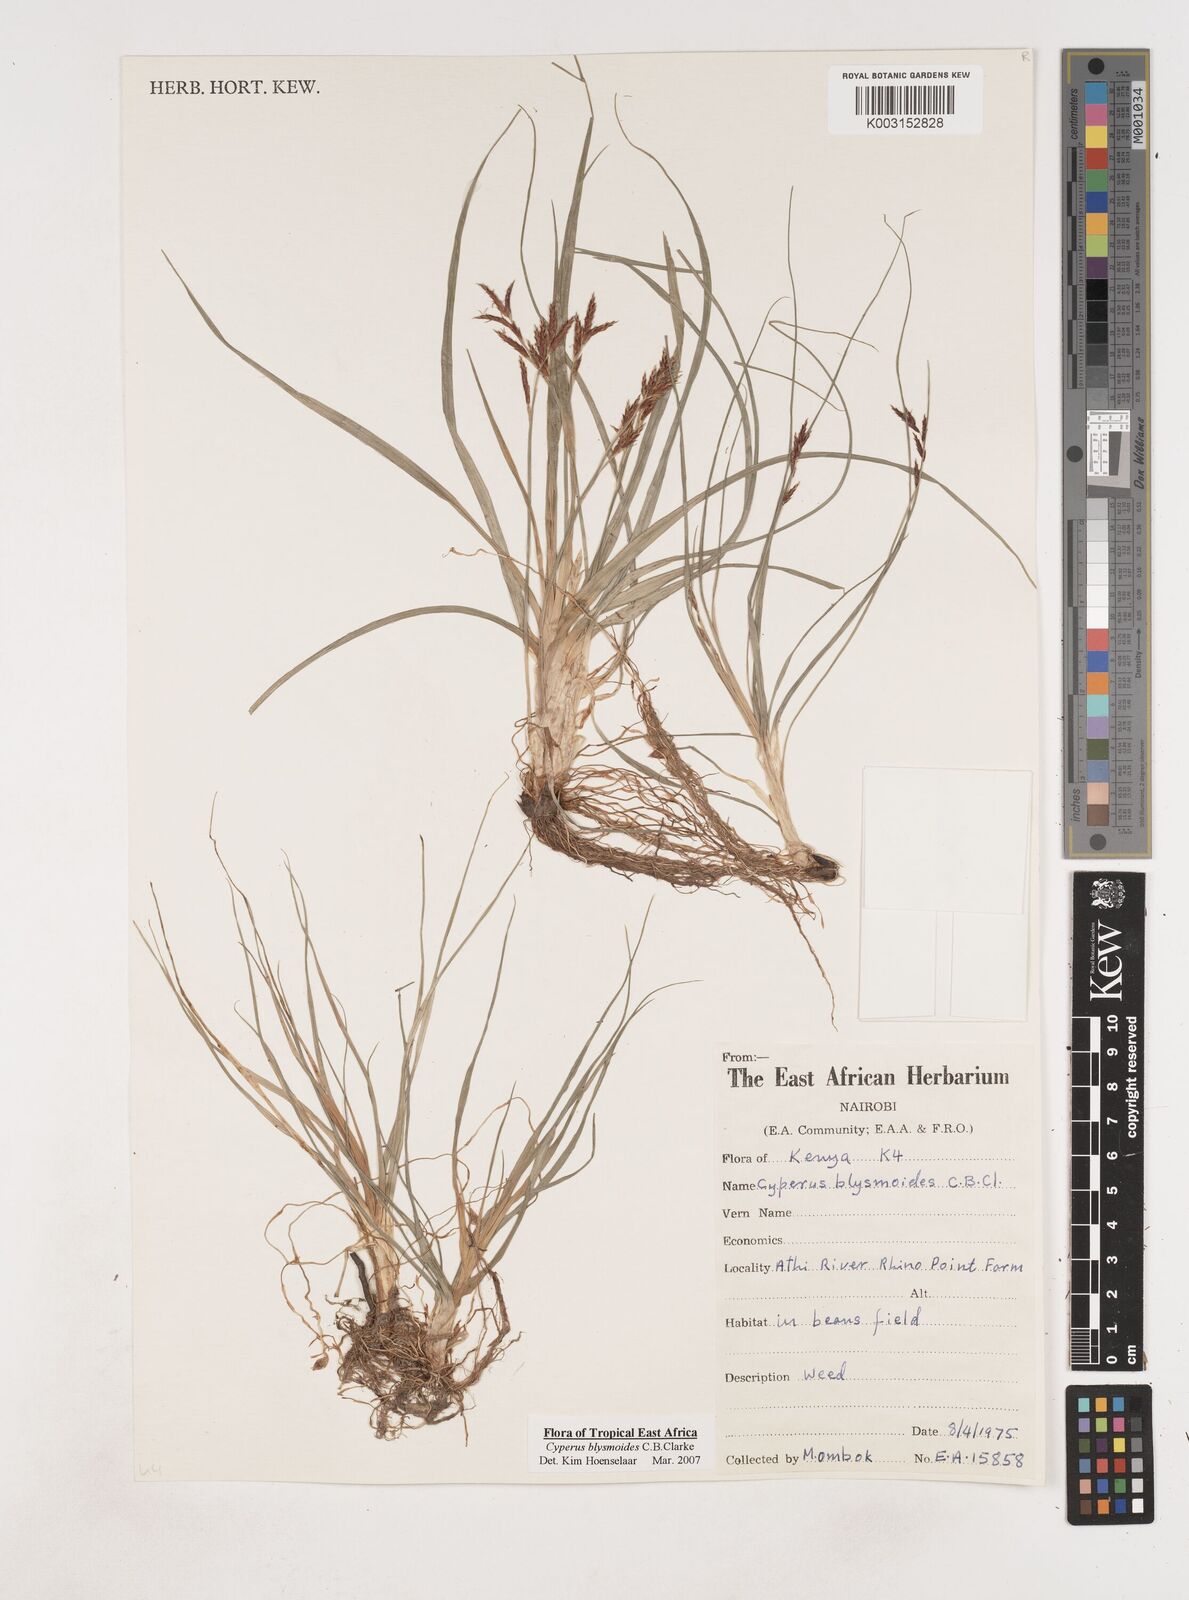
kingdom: Plantae
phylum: Tracheophyta
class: Liliopsida
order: Poales
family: Cyperaceae
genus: Cyperus
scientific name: Cyperus blysmoides
